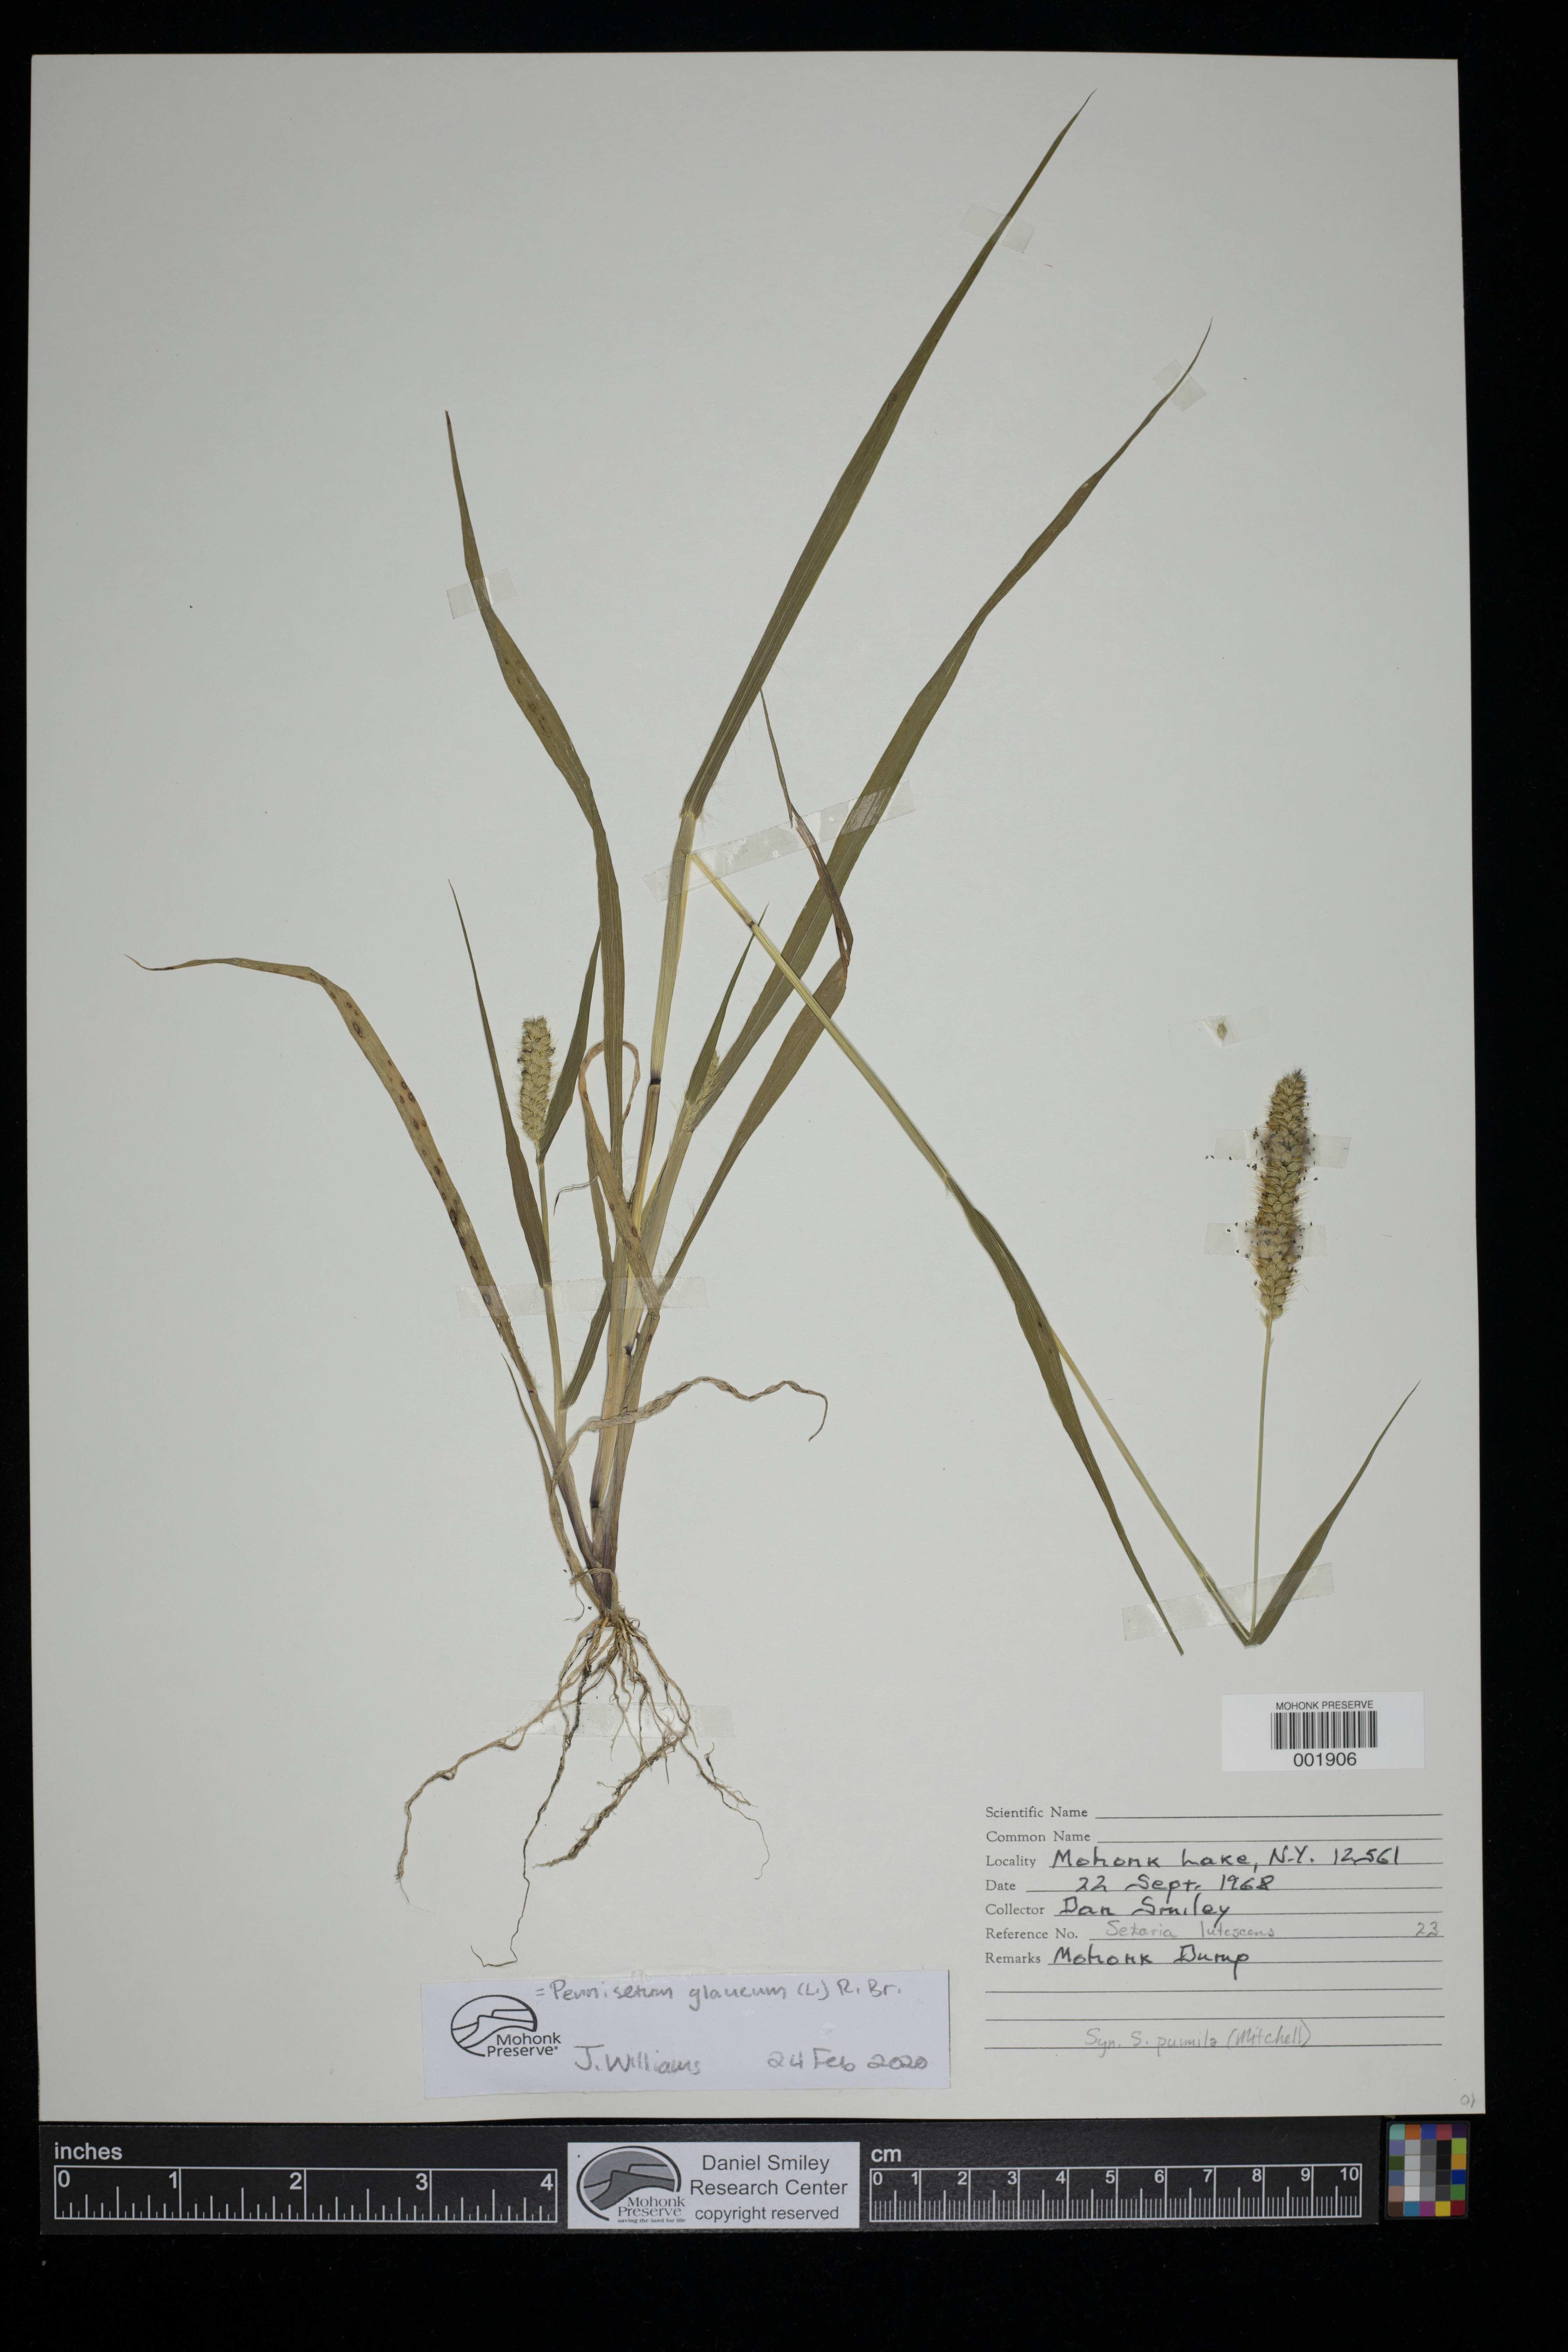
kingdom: Plantae
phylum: Tracheophyta
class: Liliopsida
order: Poales
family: Poaceae
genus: Cenchrus
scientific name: Cenchrus americanus
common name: Pearl millet
